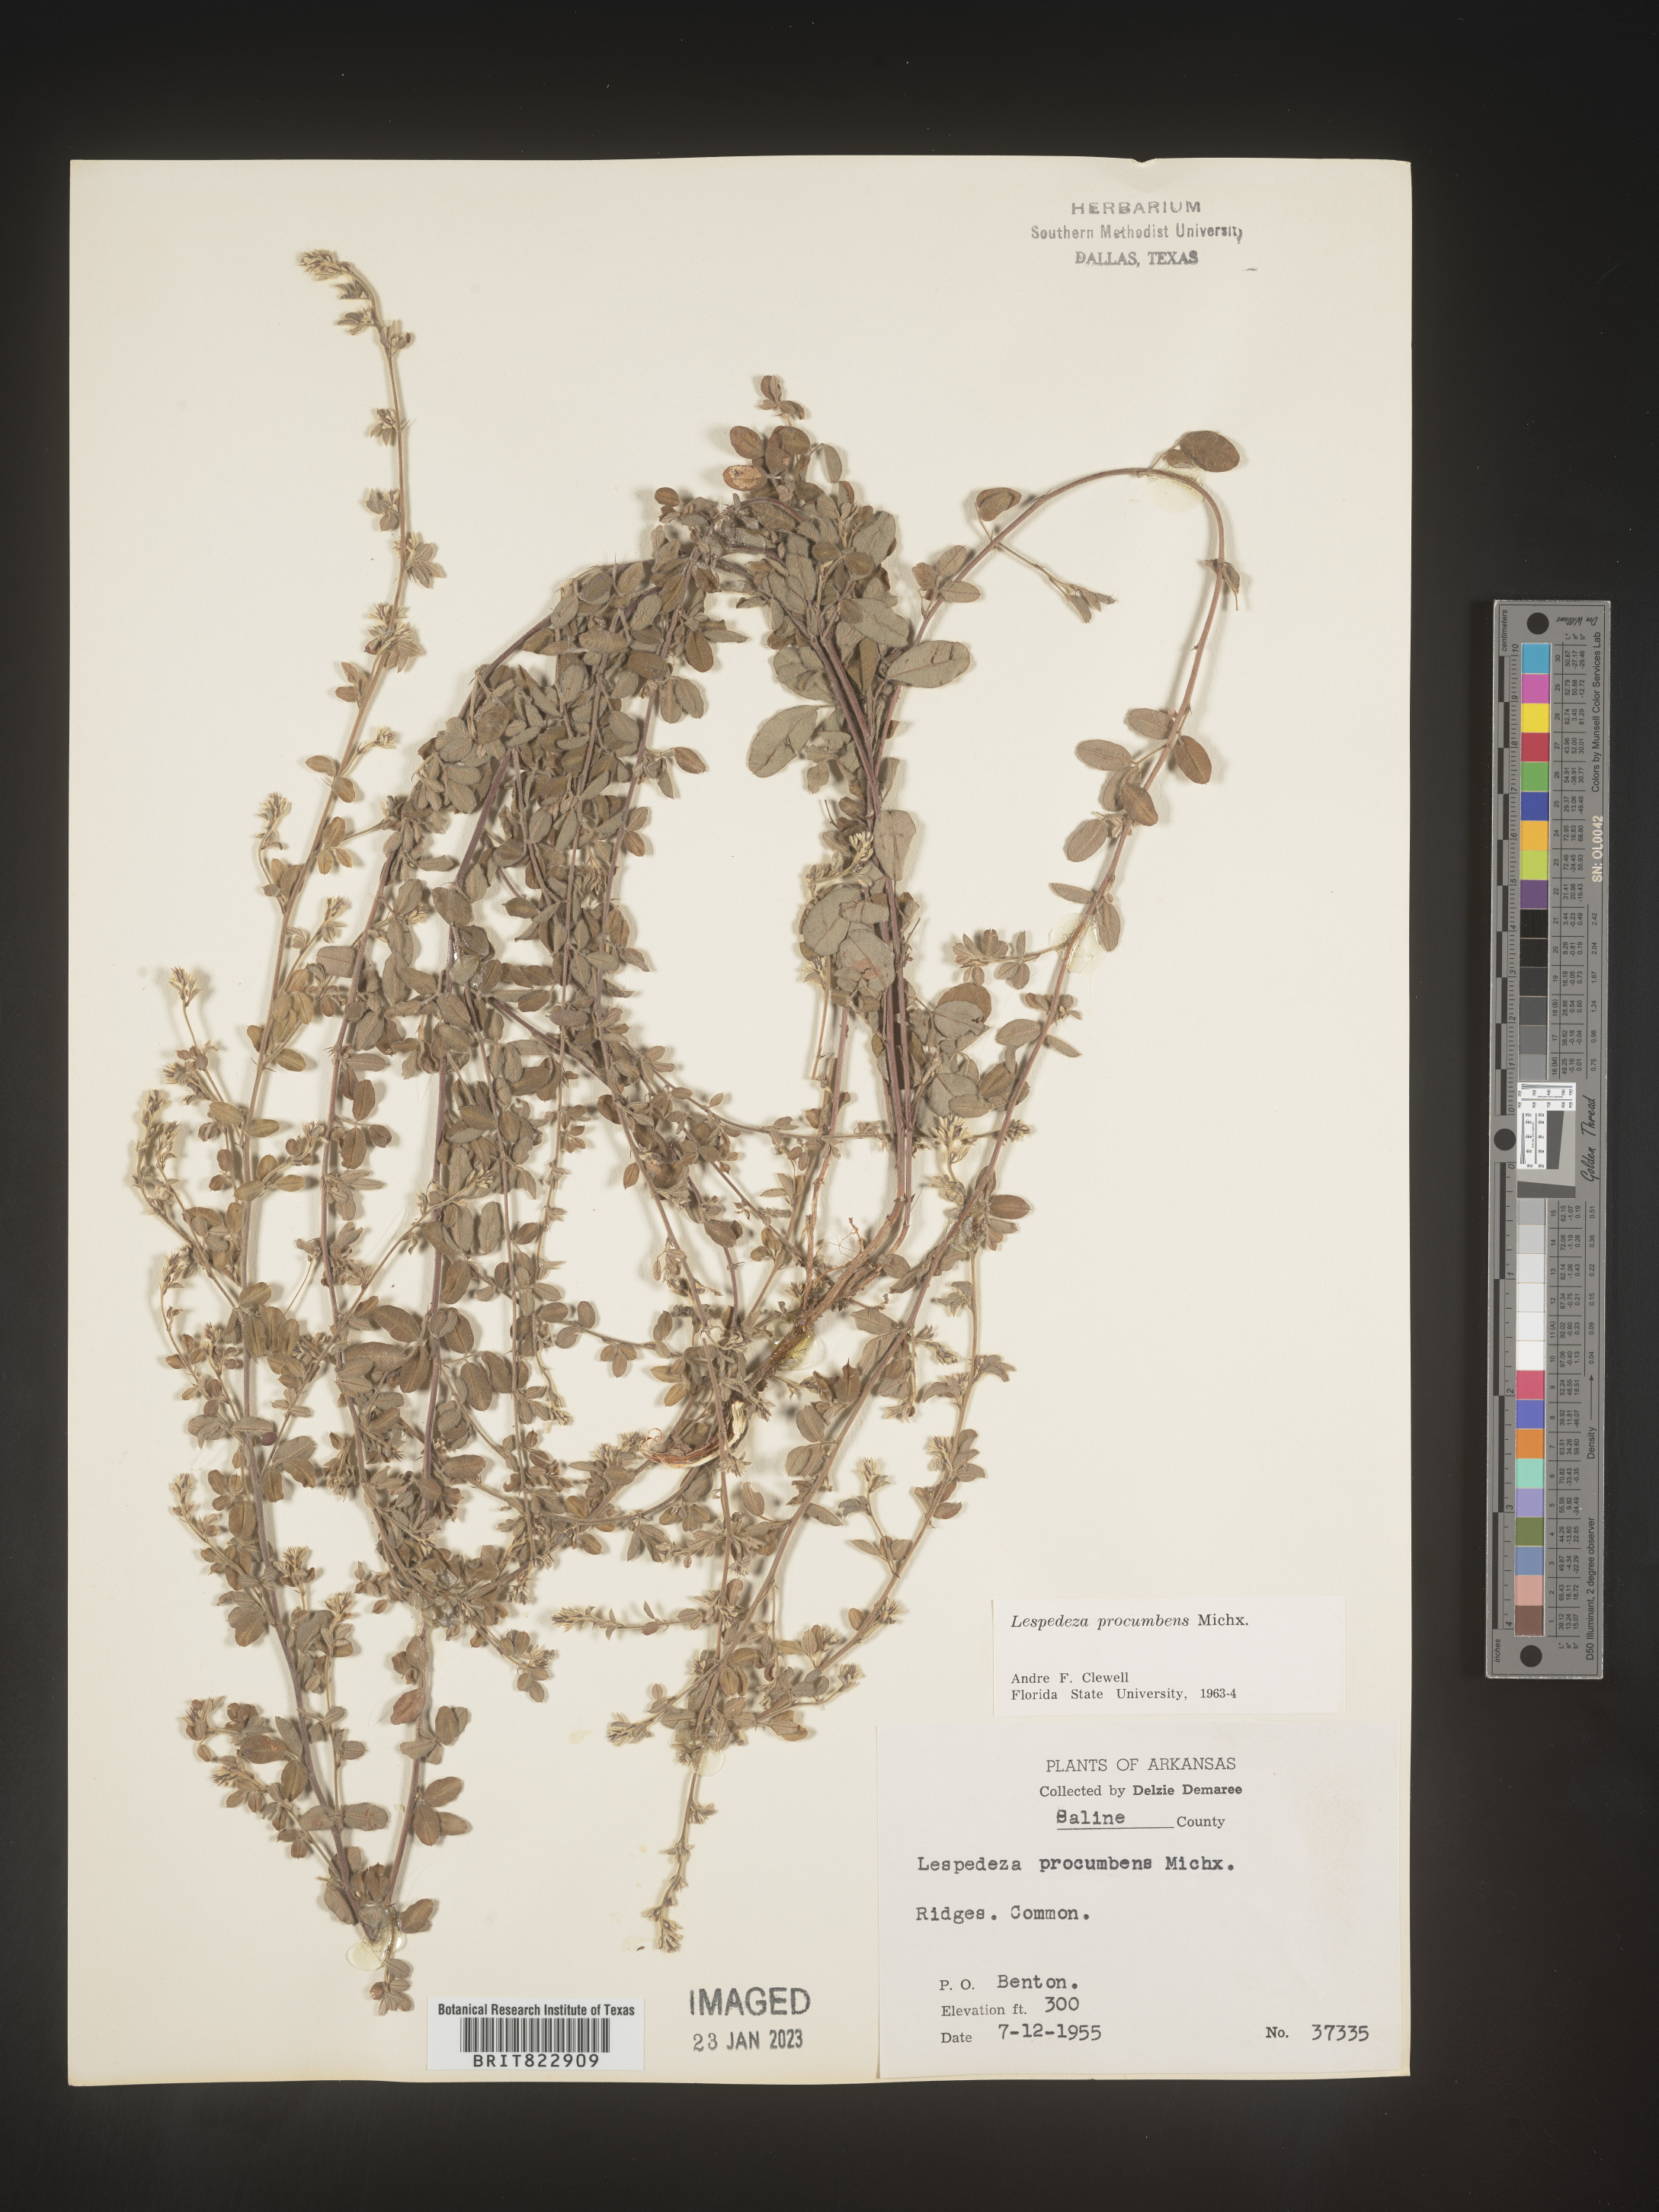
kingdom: Plantae
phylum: Tracheophyta
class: Magnoliopsida
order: Fabales
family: Fabaceae
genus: Lespedeza
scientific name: Lespedeza procumbens
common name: Downy trailing bush-clover
